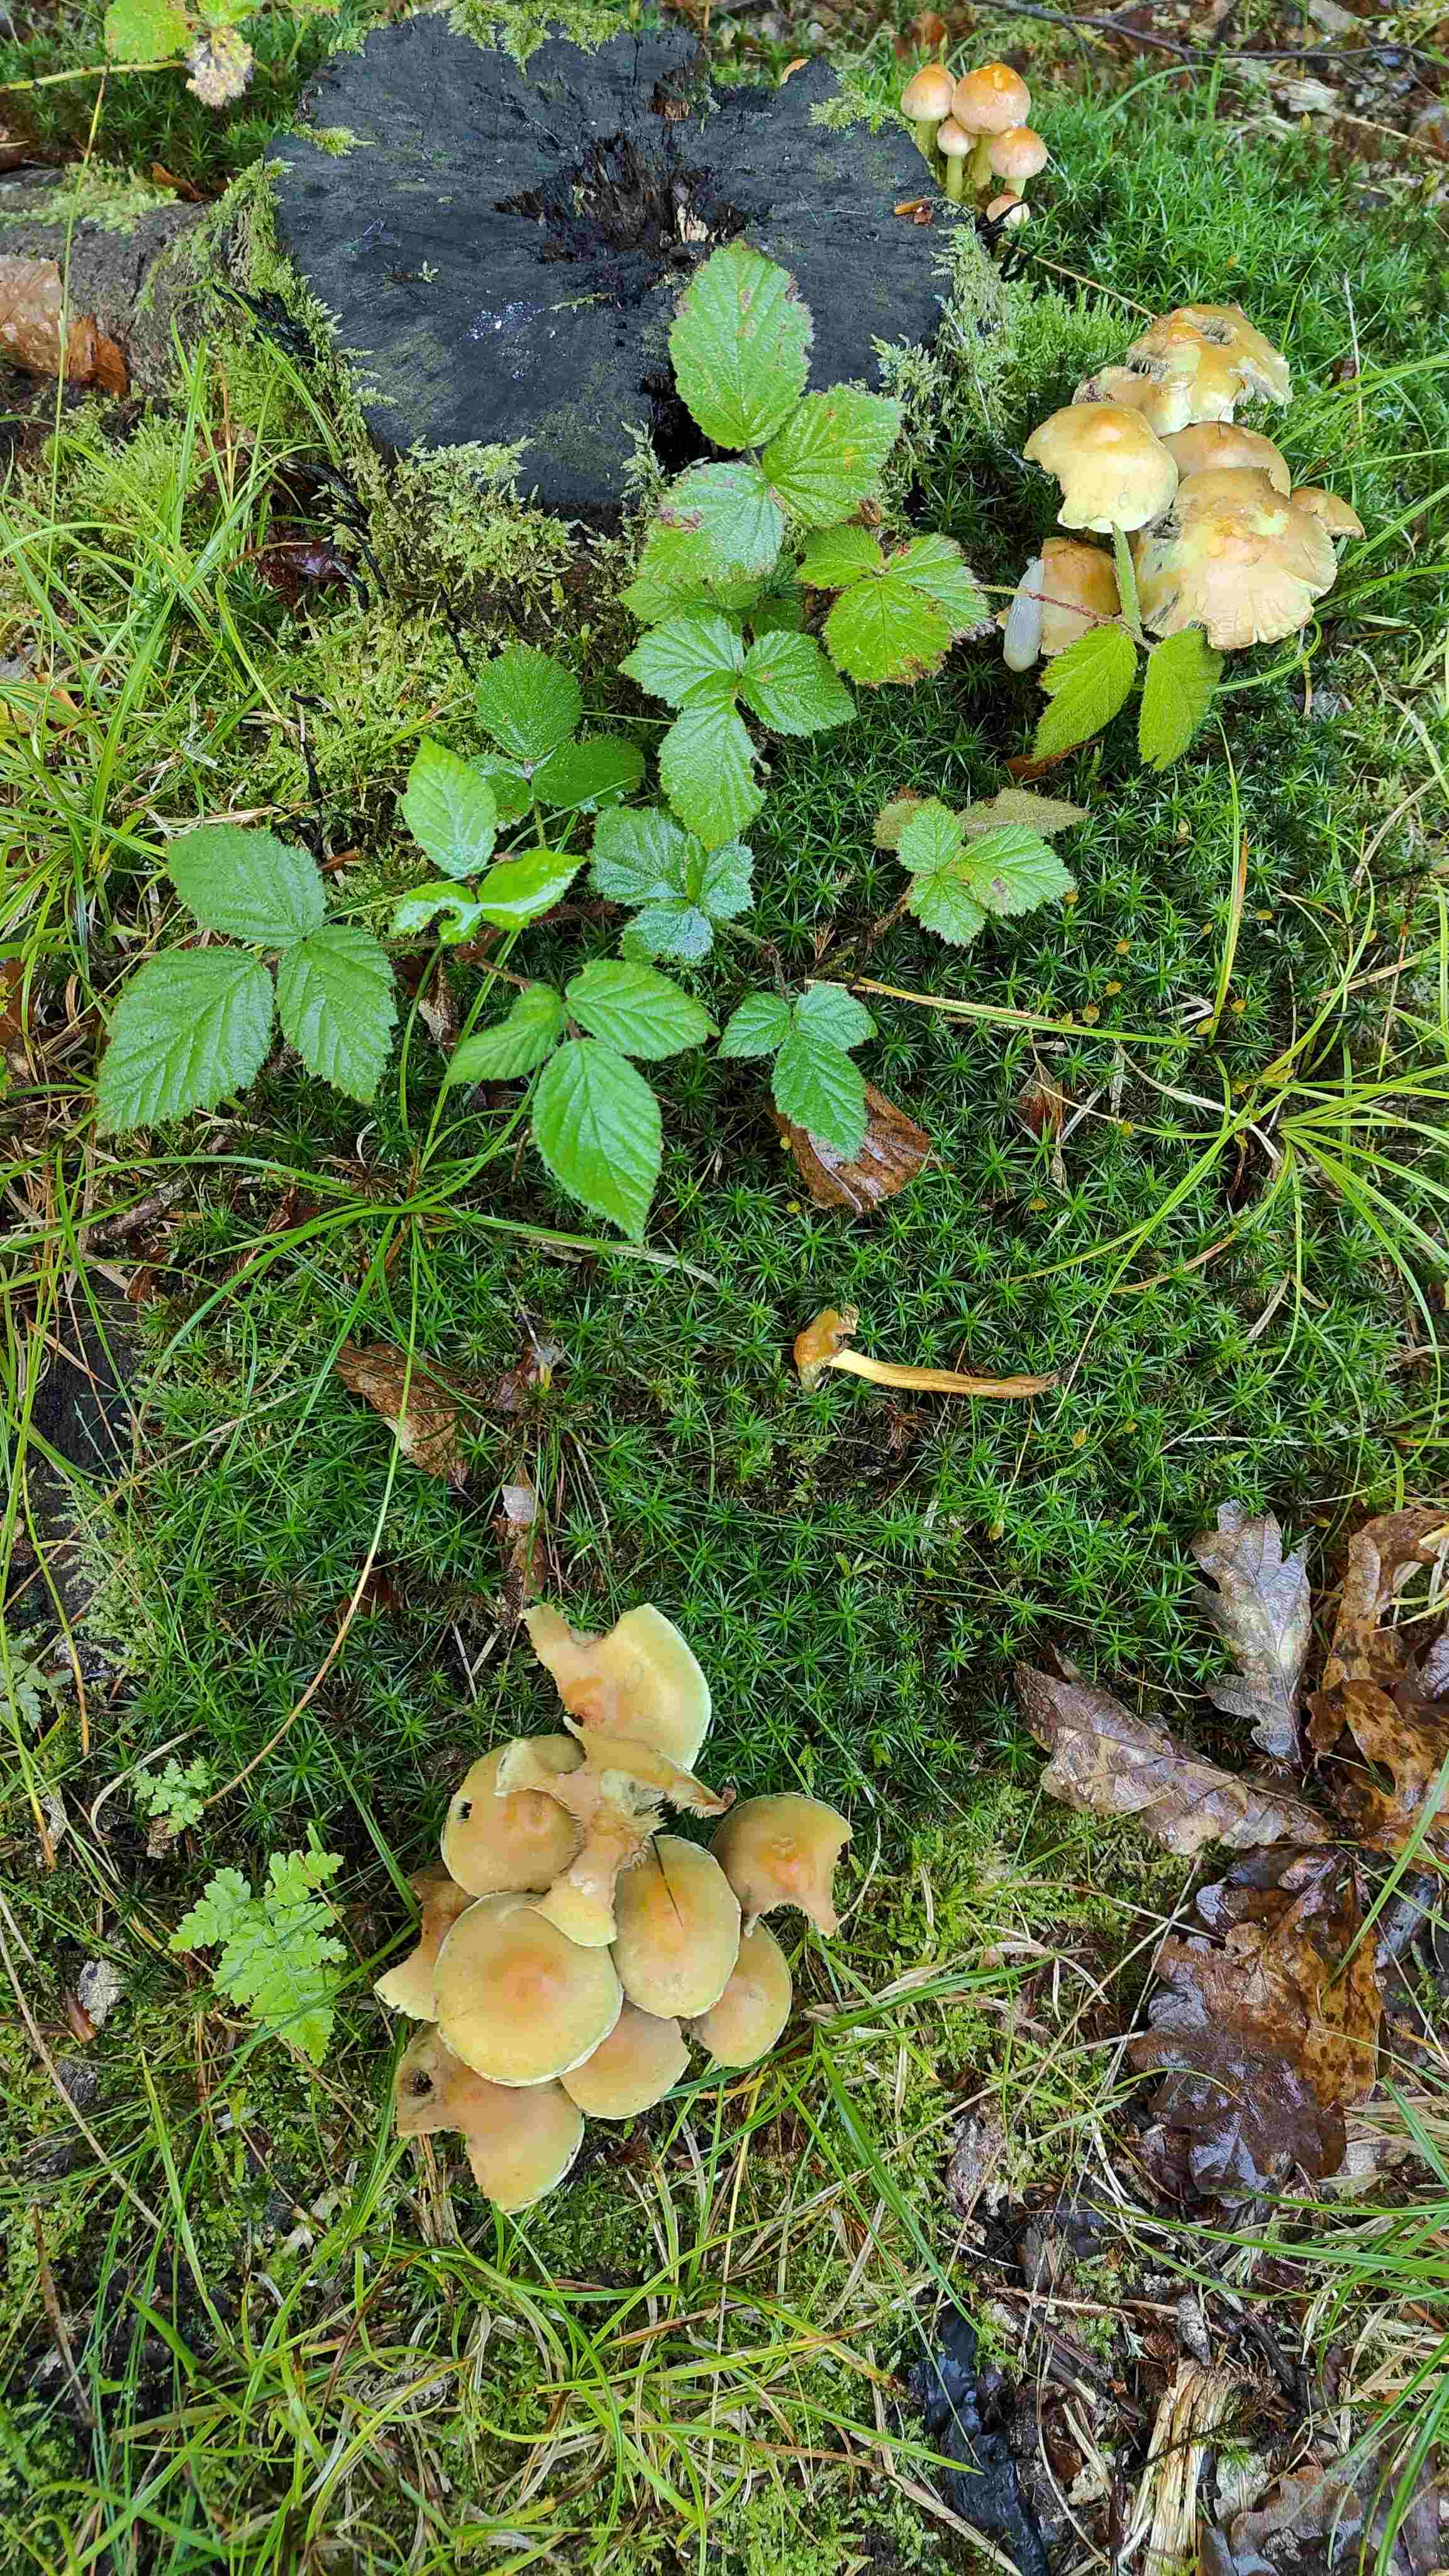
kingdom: Fungi
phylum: Basidiomycota
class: Agaricomycetes
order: Agaricales
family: Strophariaceae
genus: Hypholoma
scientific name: Hypholoma fasciculare
